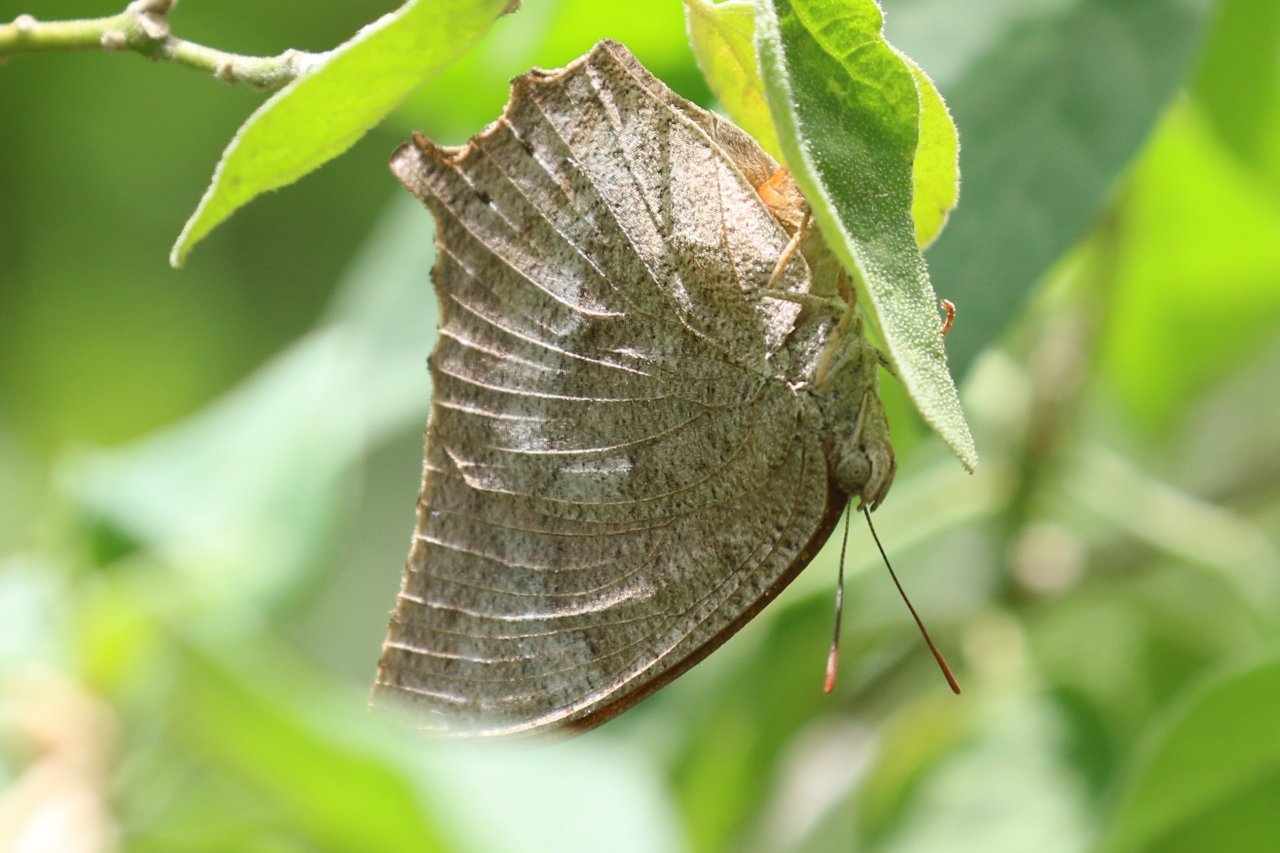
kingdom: Animalia
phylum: Arthropoda
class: Insecta
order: Lepidoptera
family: Nymphalidae
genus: Anaea
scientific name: Anaea aidea
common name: Tropical Leafwing
